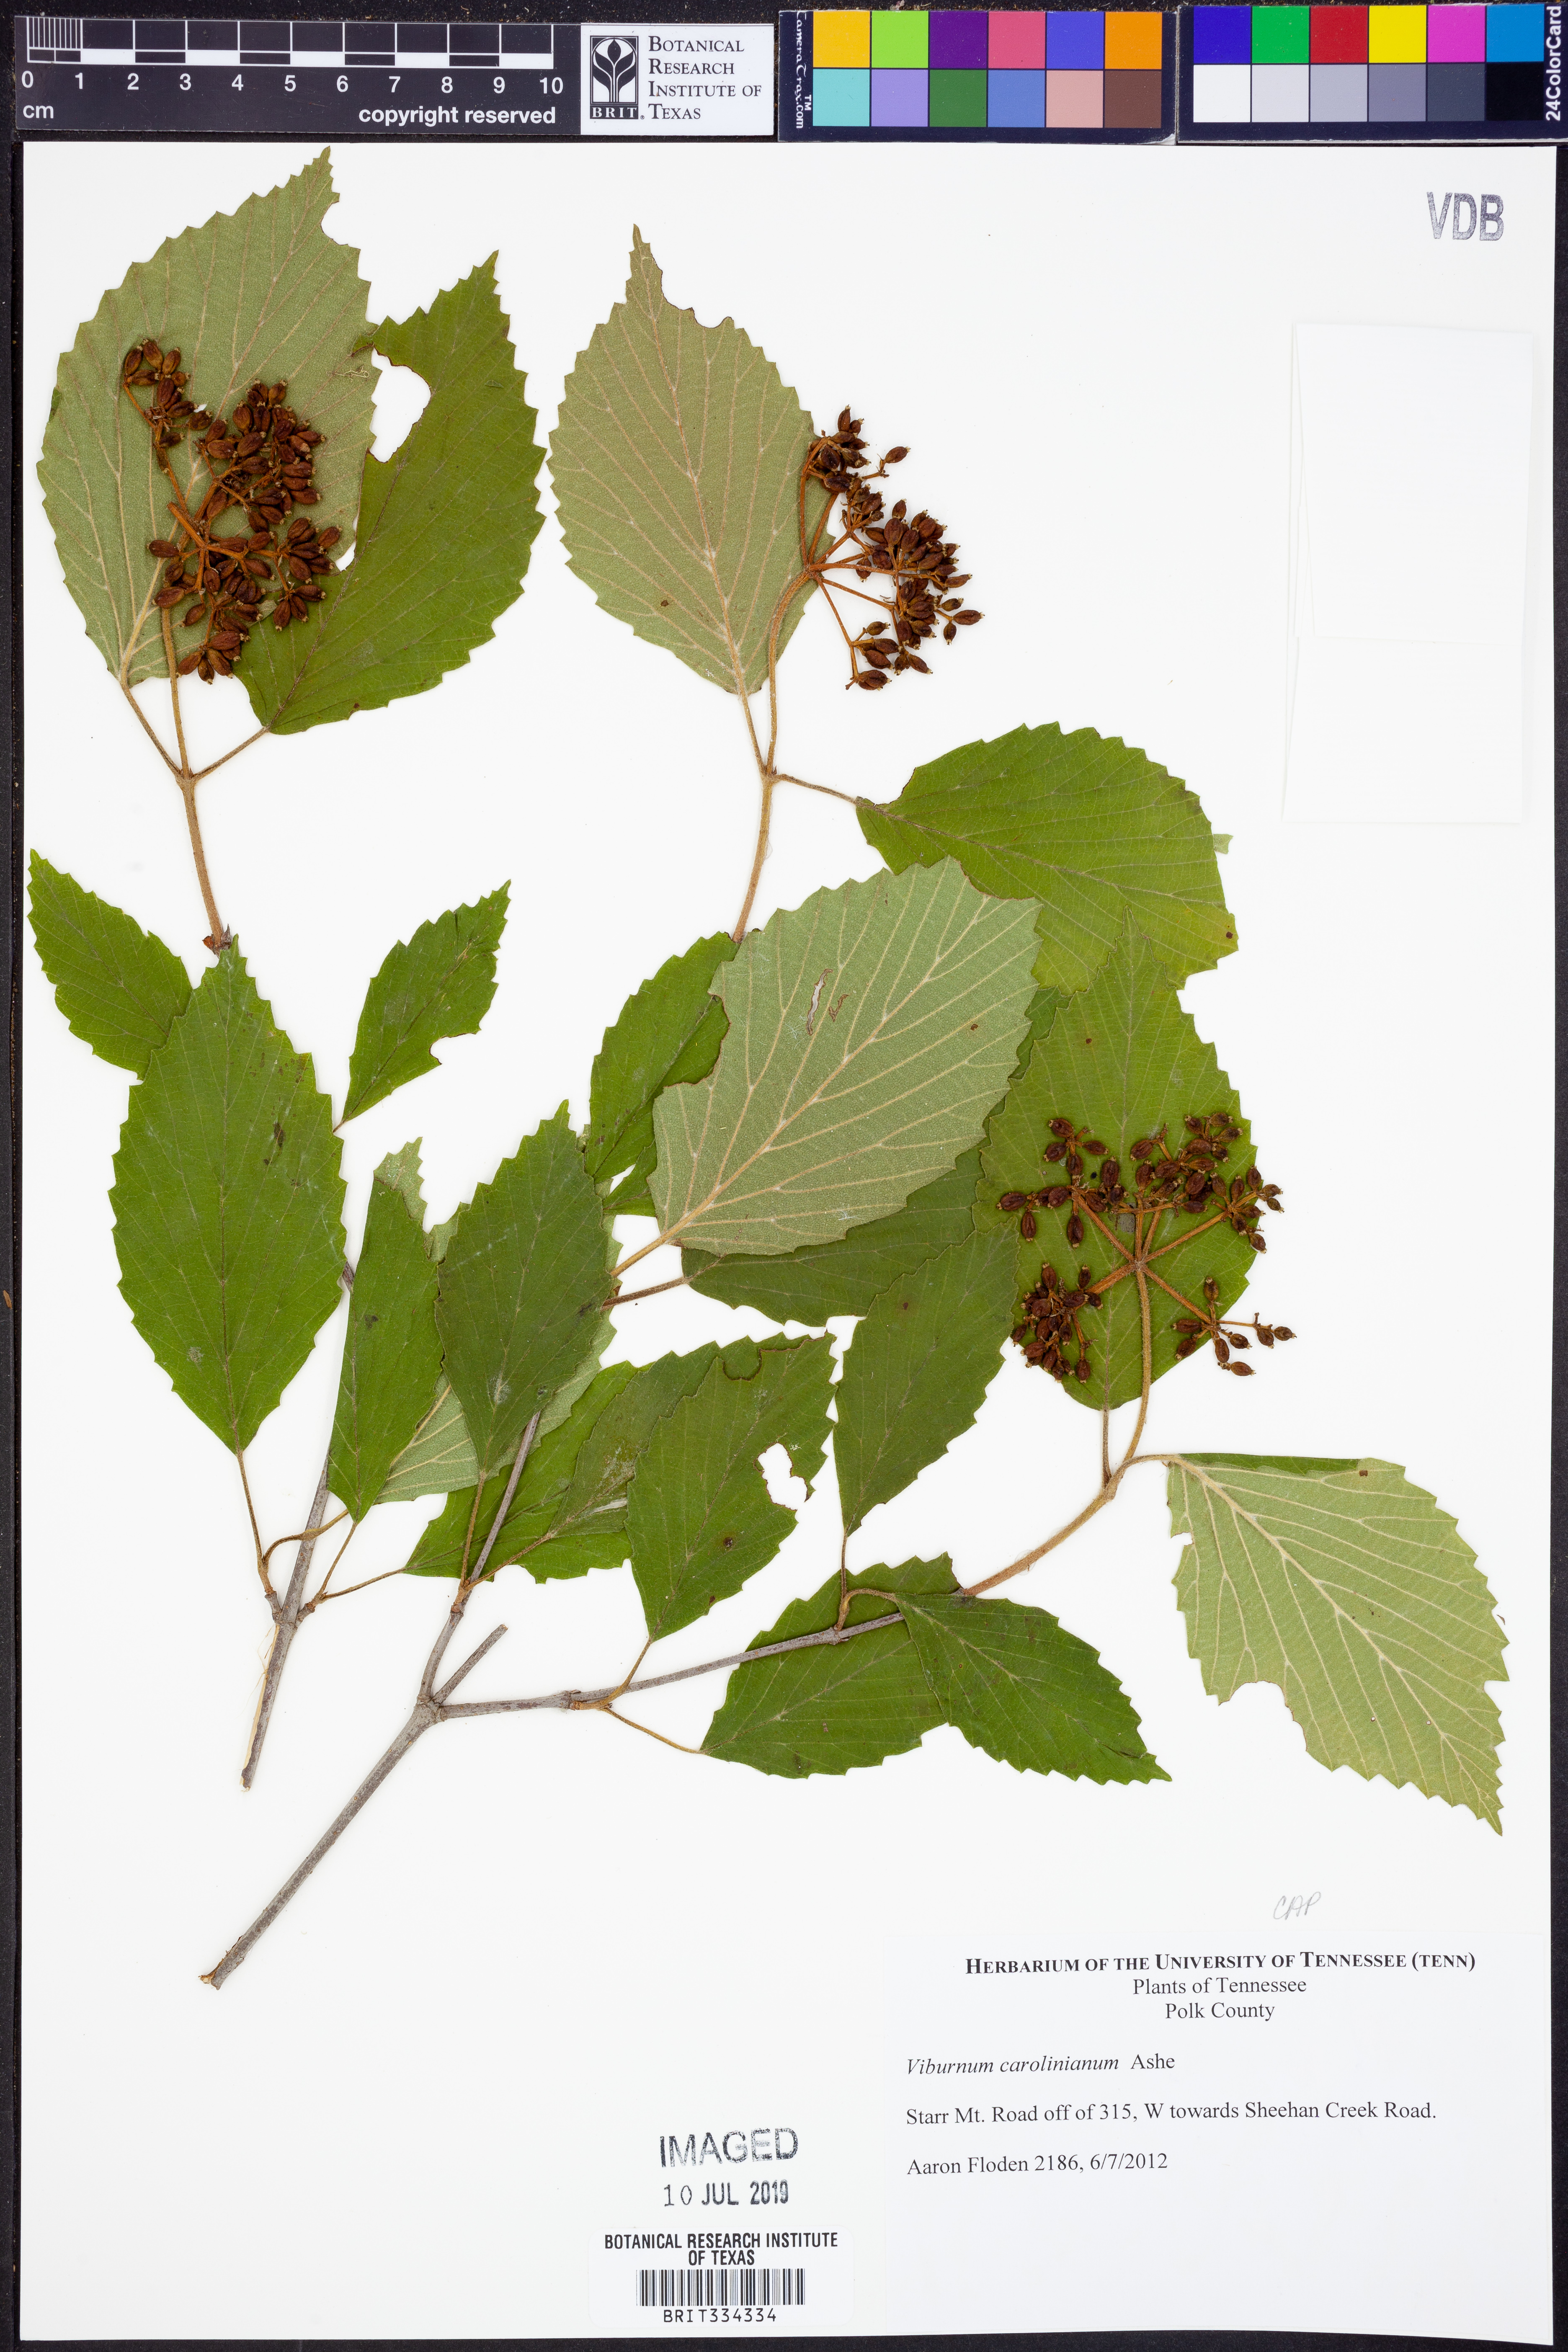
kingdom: Plantae
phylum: Tracheophyta
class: Magnoliopsida
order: Dipsacales
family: Viburnaceae
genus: Viburnum
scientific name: Viburnum carolinianum
